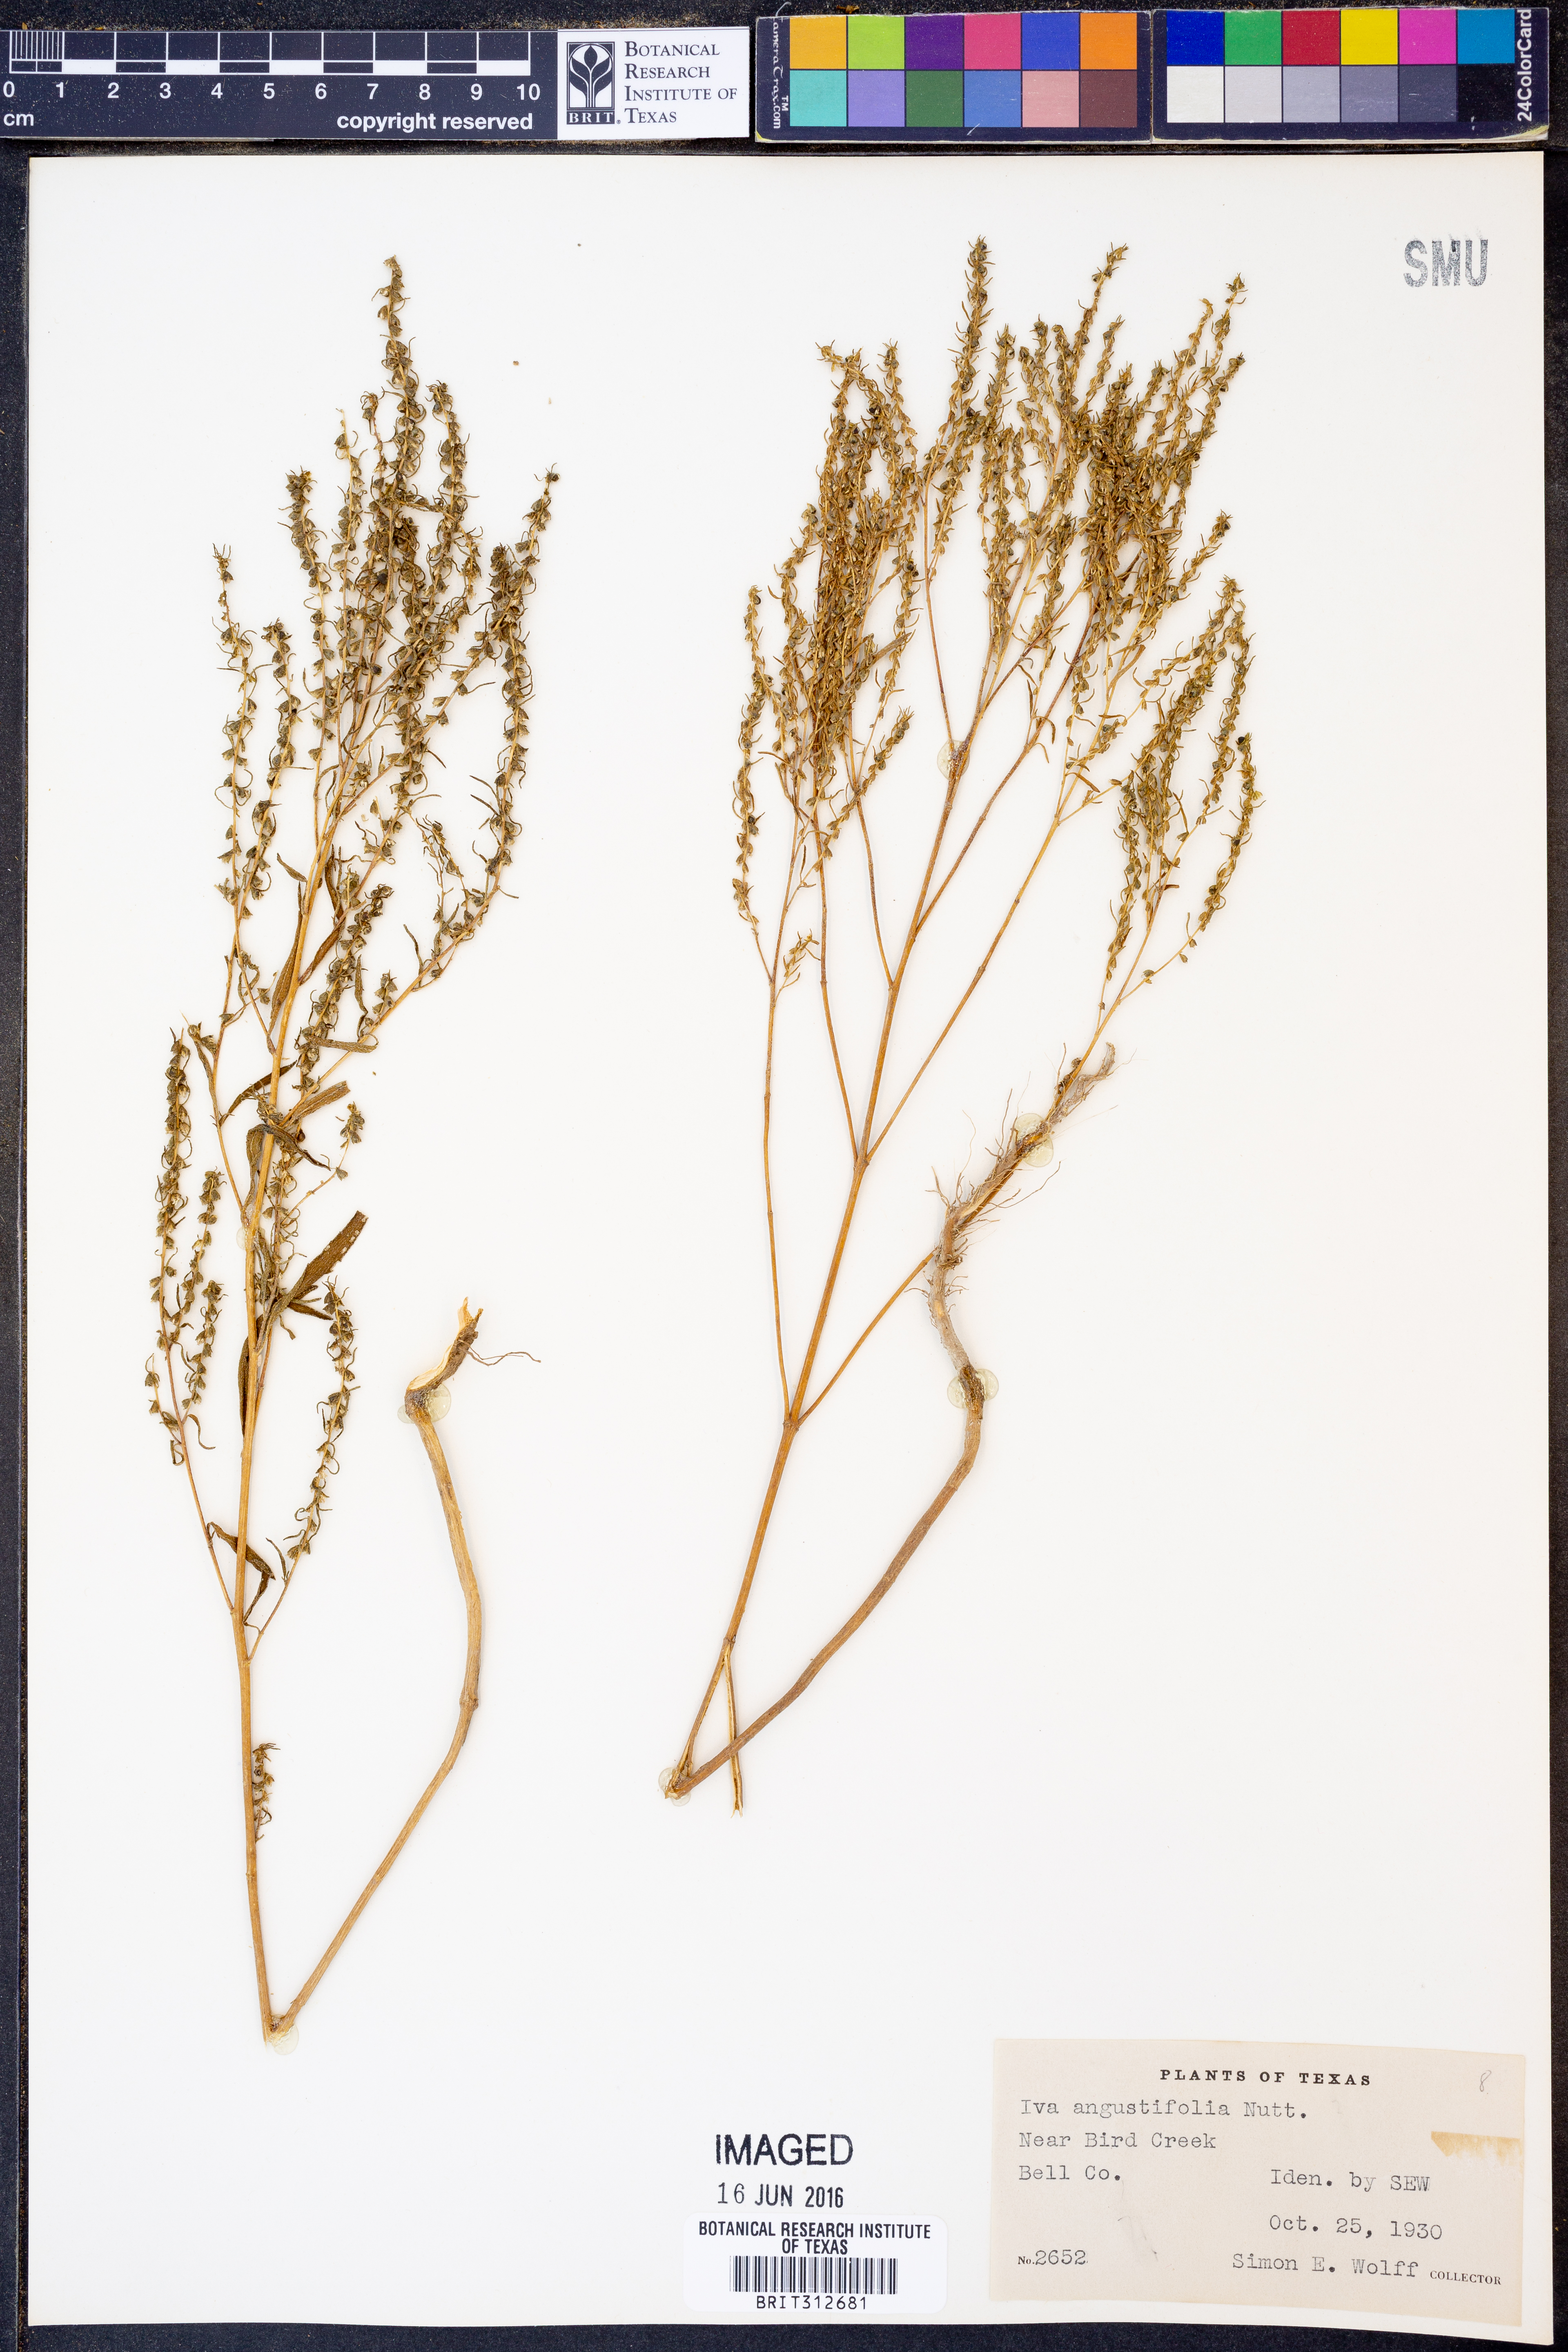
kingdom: Plantae
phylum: Tracheophyta
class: Magnoliopsida
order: Asterales
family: Asteraceae
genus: Iva
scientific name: Iva asperifolia
